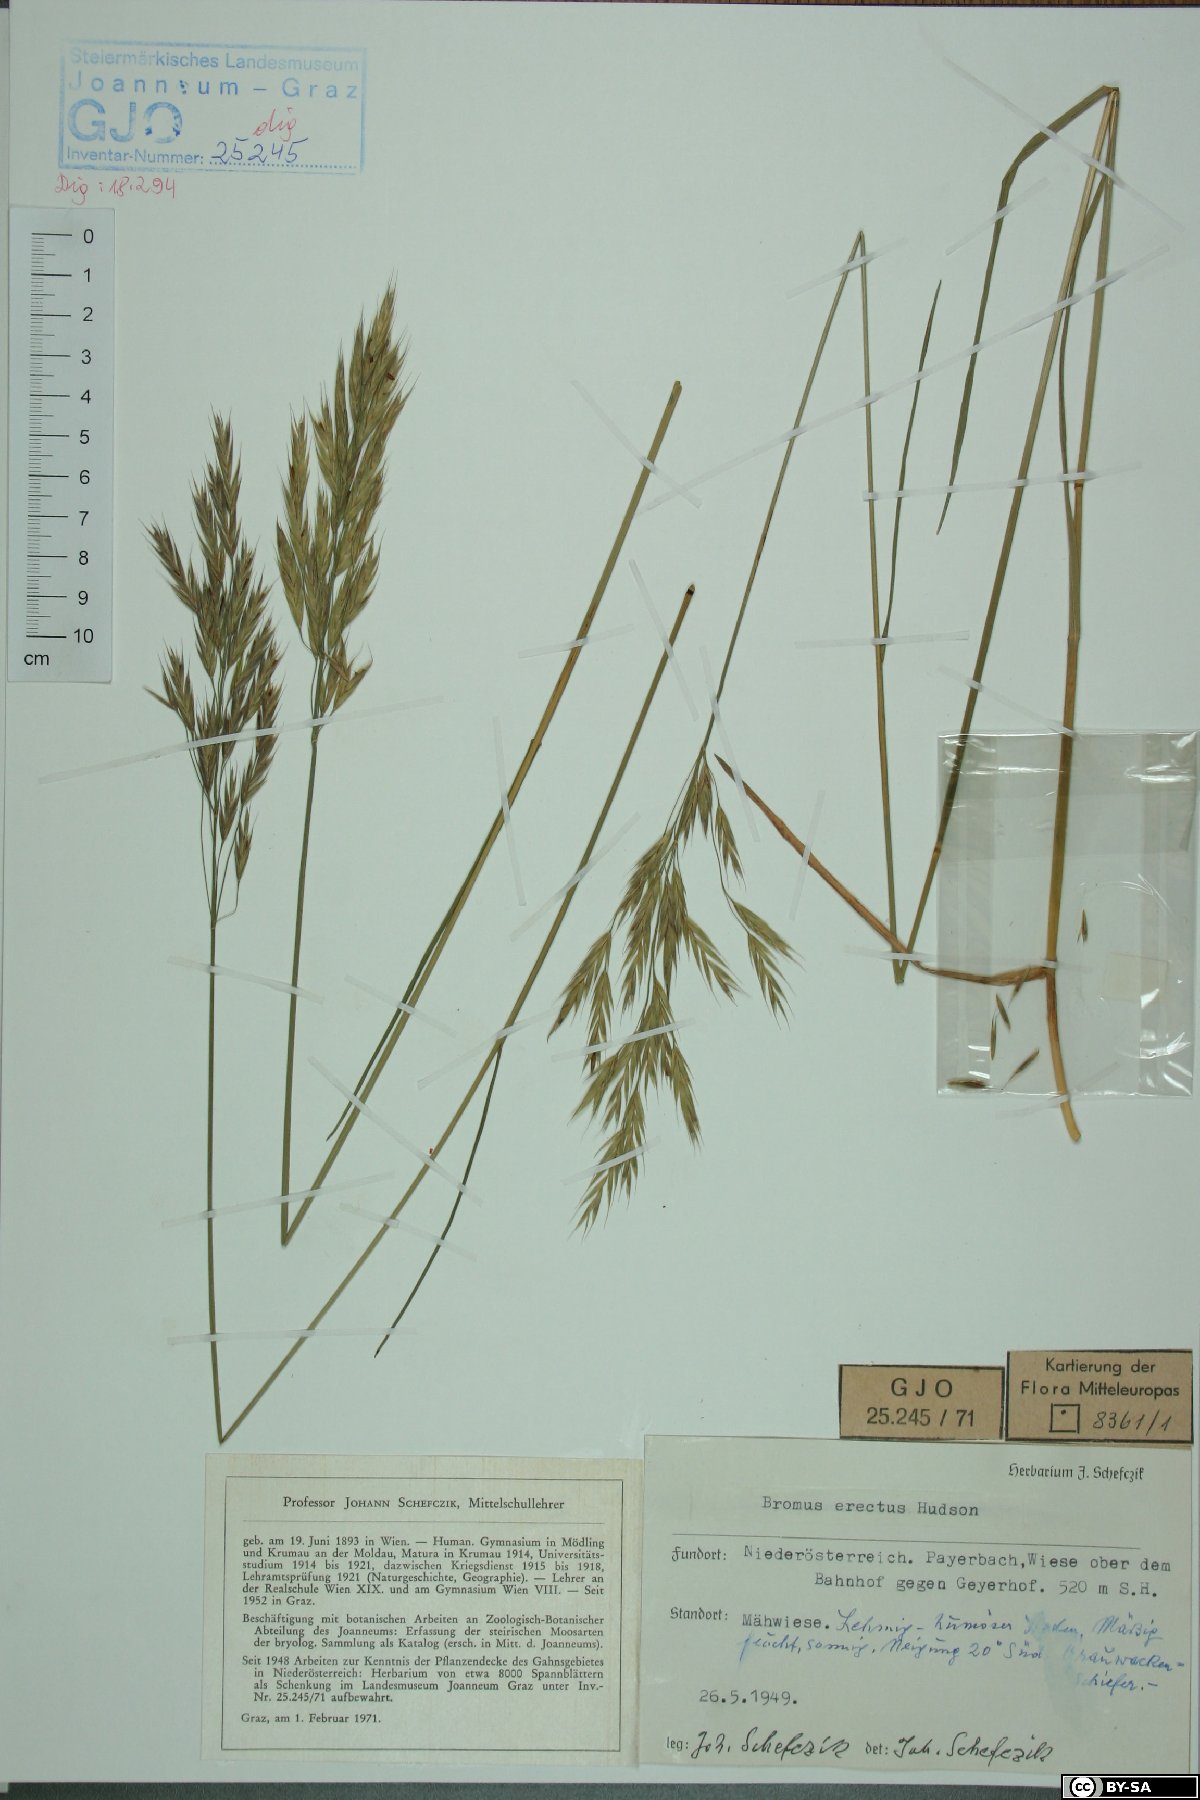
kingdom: Plantae
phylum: Tracheophyta
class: Liliopsida
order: Poales
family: Poaceae
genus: Bromus
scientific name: Bromus erectus
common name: Erect brome
